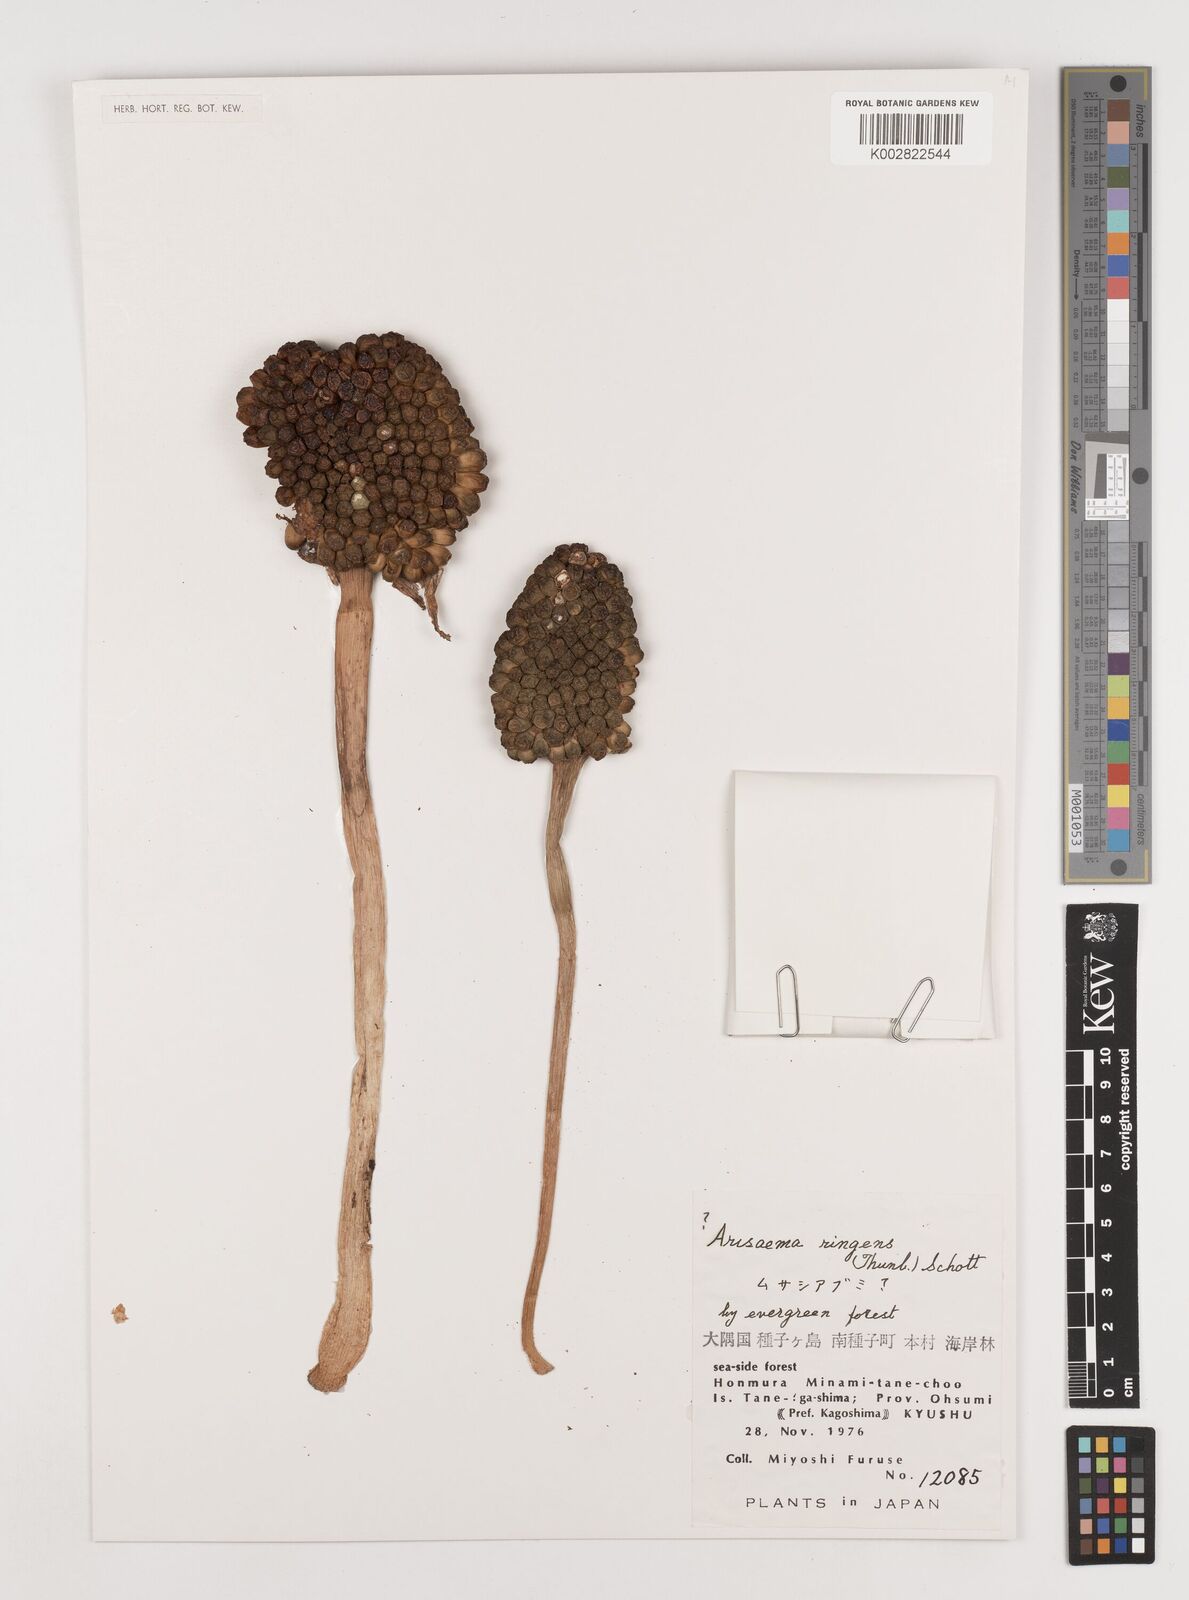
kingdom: Plantae
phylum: Tracheophyta
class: Liliopsida
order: Alismatales
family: Araceae
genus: Arisaema
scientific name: Arisaema ringens
